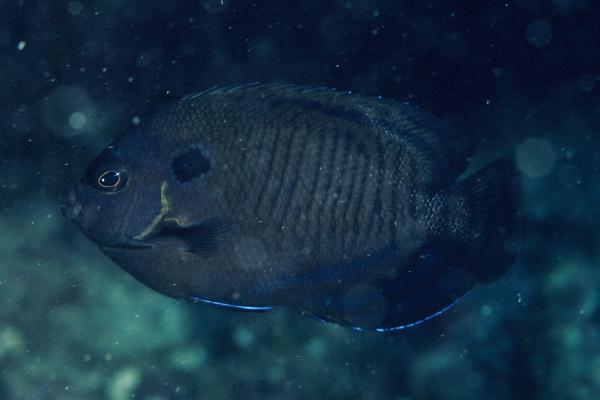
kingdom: Animalia
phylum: Chordata
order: Perciformes
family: Pomacanthidae
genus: Centropyge
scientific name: Centropyge multispinis
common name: Many-spined angelfish
